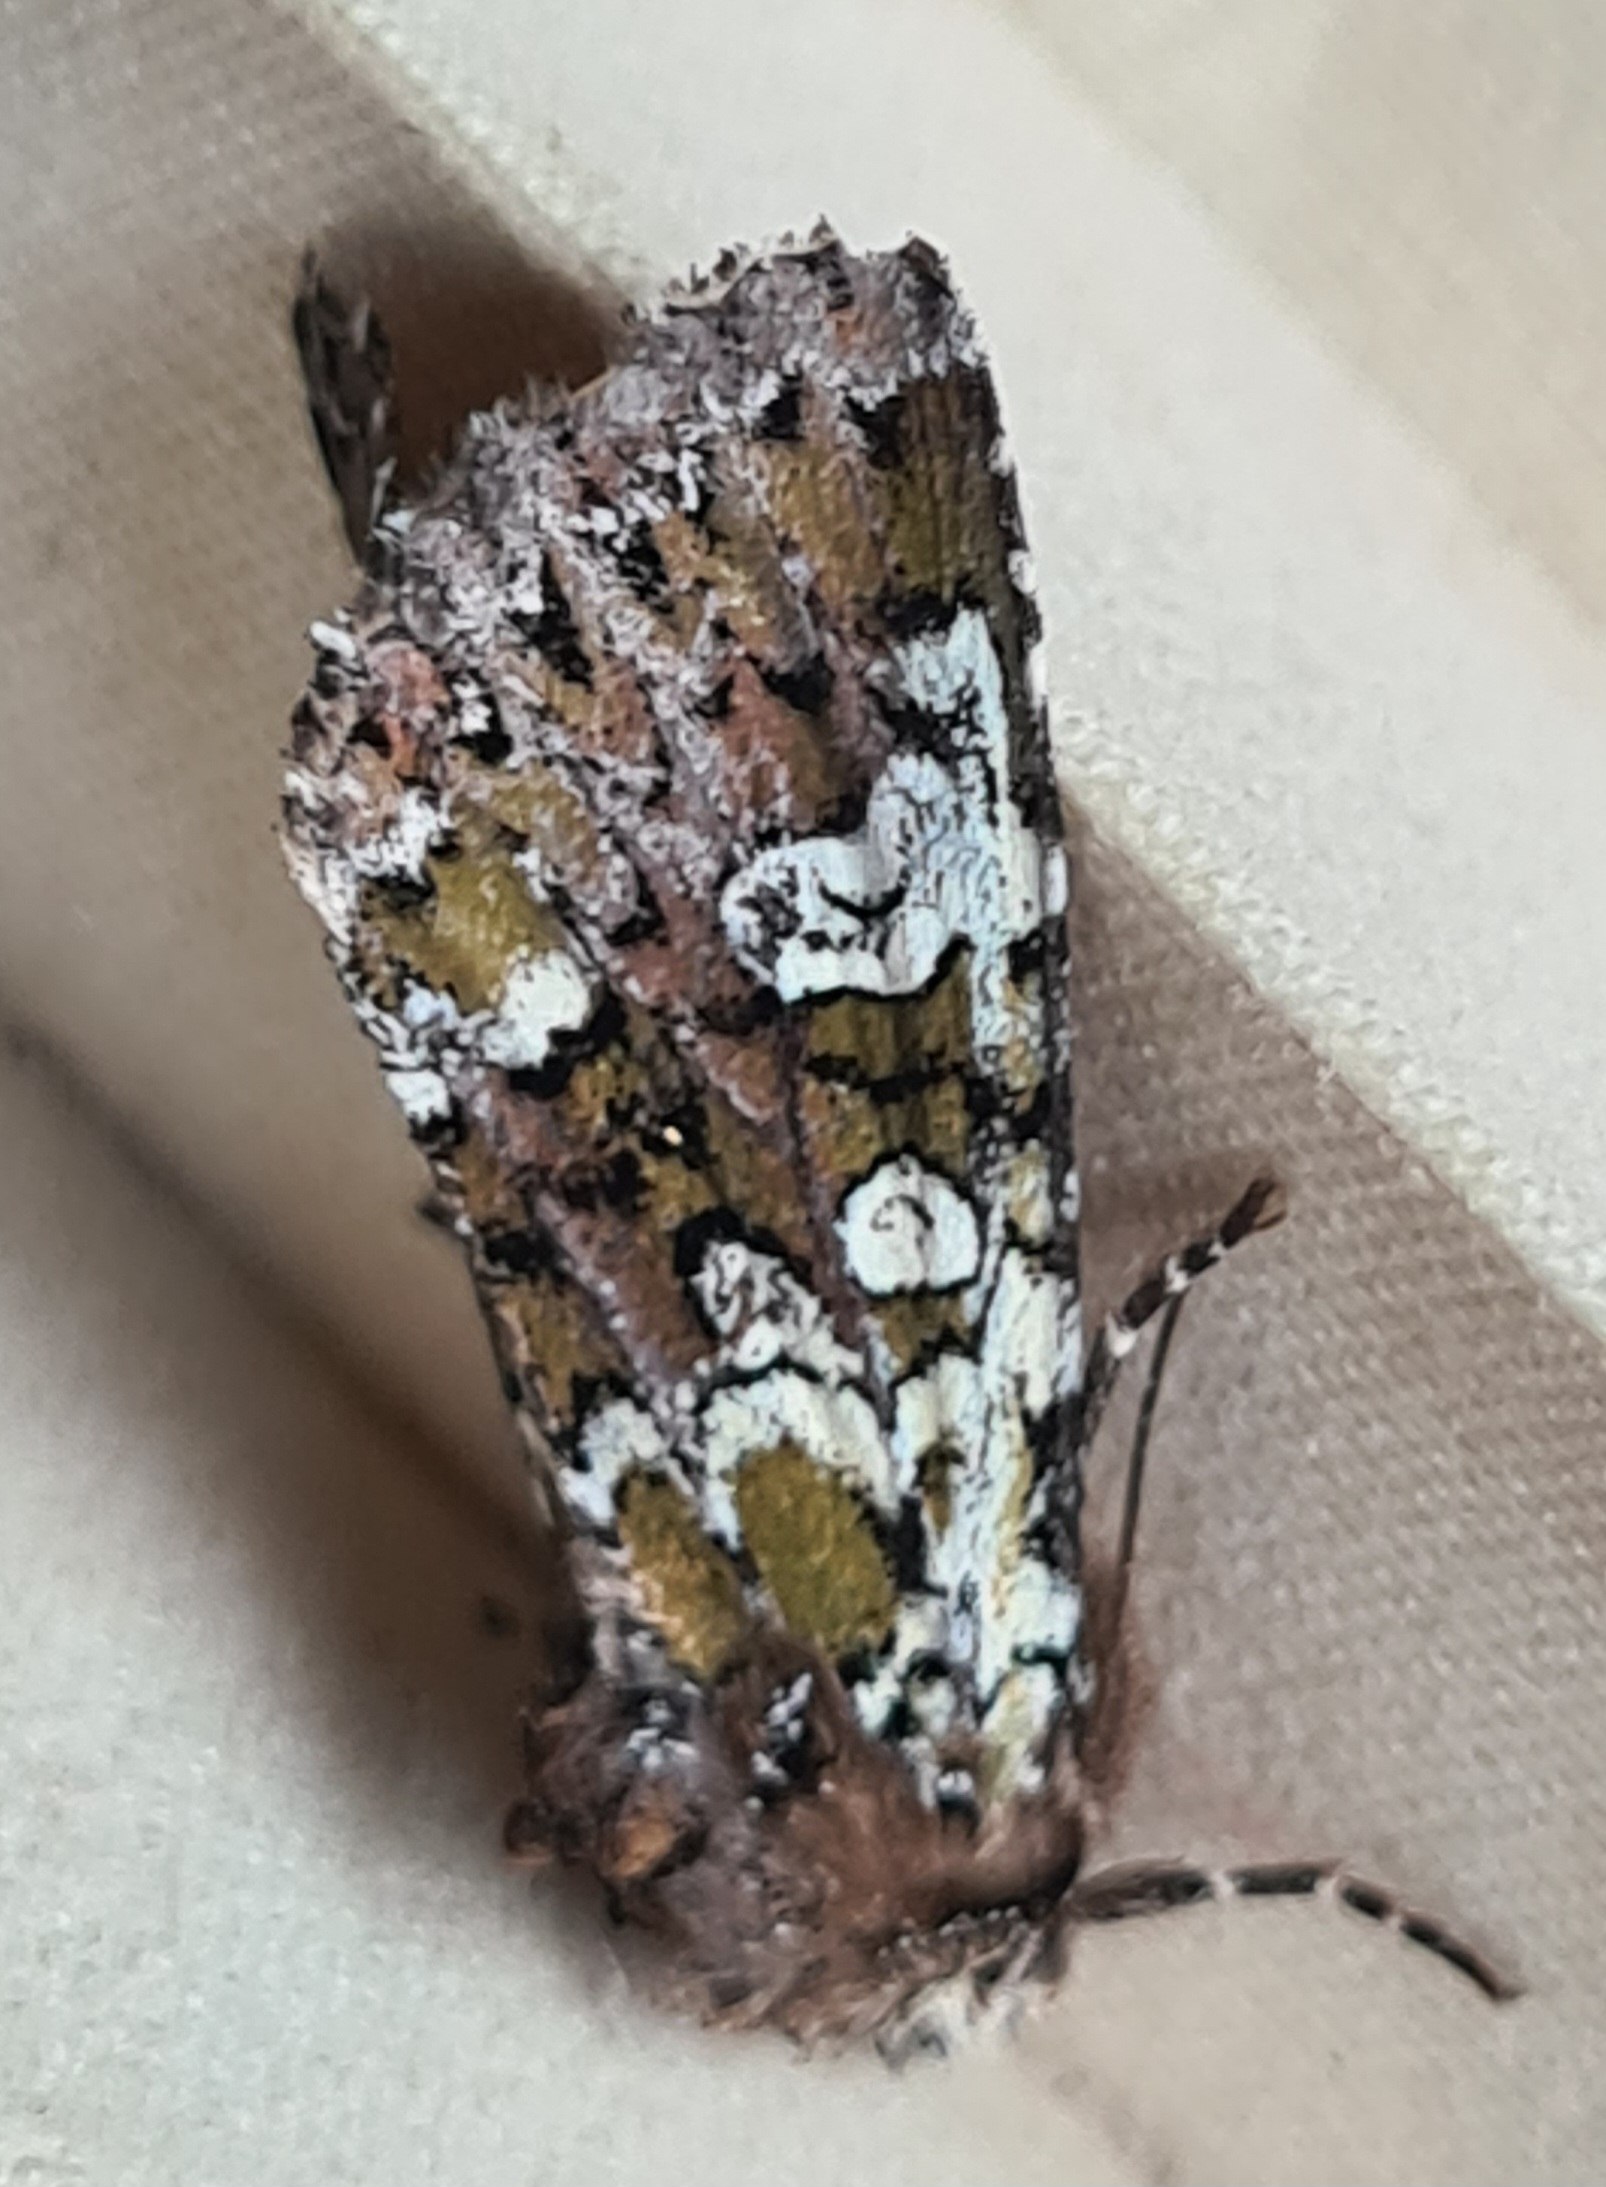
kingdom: Animalia
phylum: Arthropoda
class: Insecta
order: Lepidoptera
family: Noctuidae
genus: Crypsedra
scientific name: Crypsedra gemmea
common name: Smykke-stængelugle
